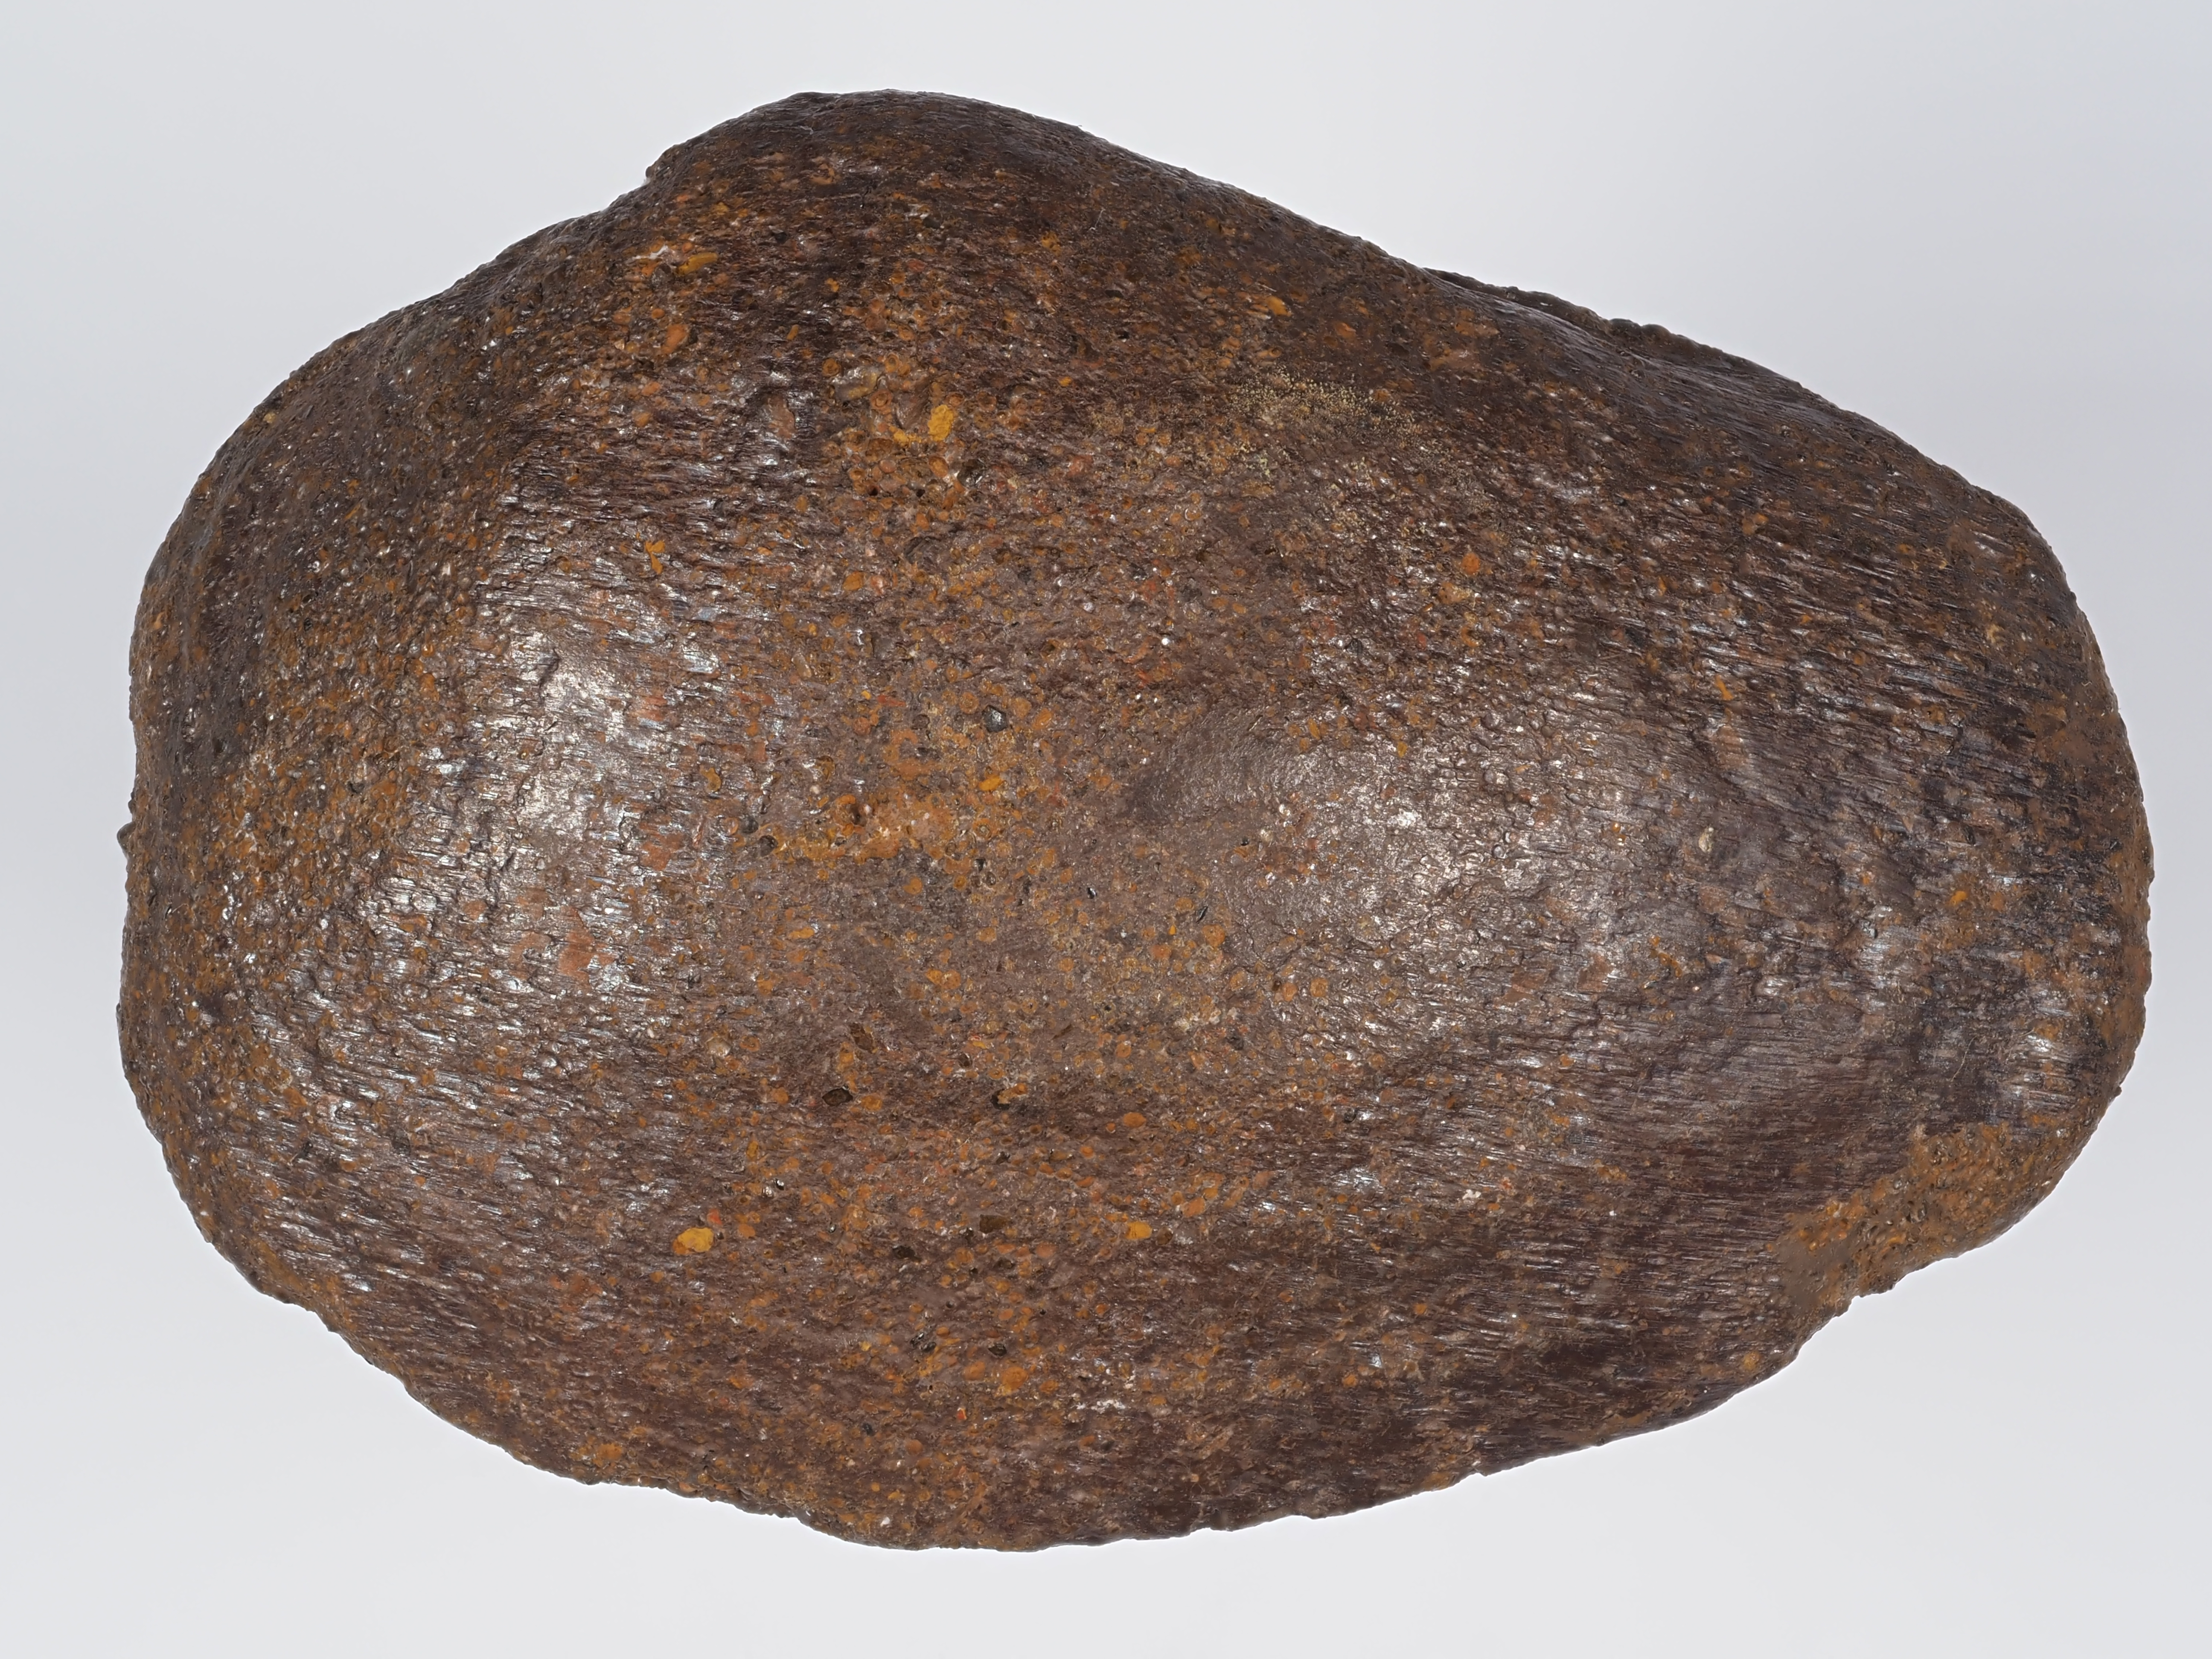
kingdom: Animalia
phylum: Mollusca
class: Bivalvia
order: Myida
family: Ceratomyidae
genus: Gresslya
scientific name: Gresslya
